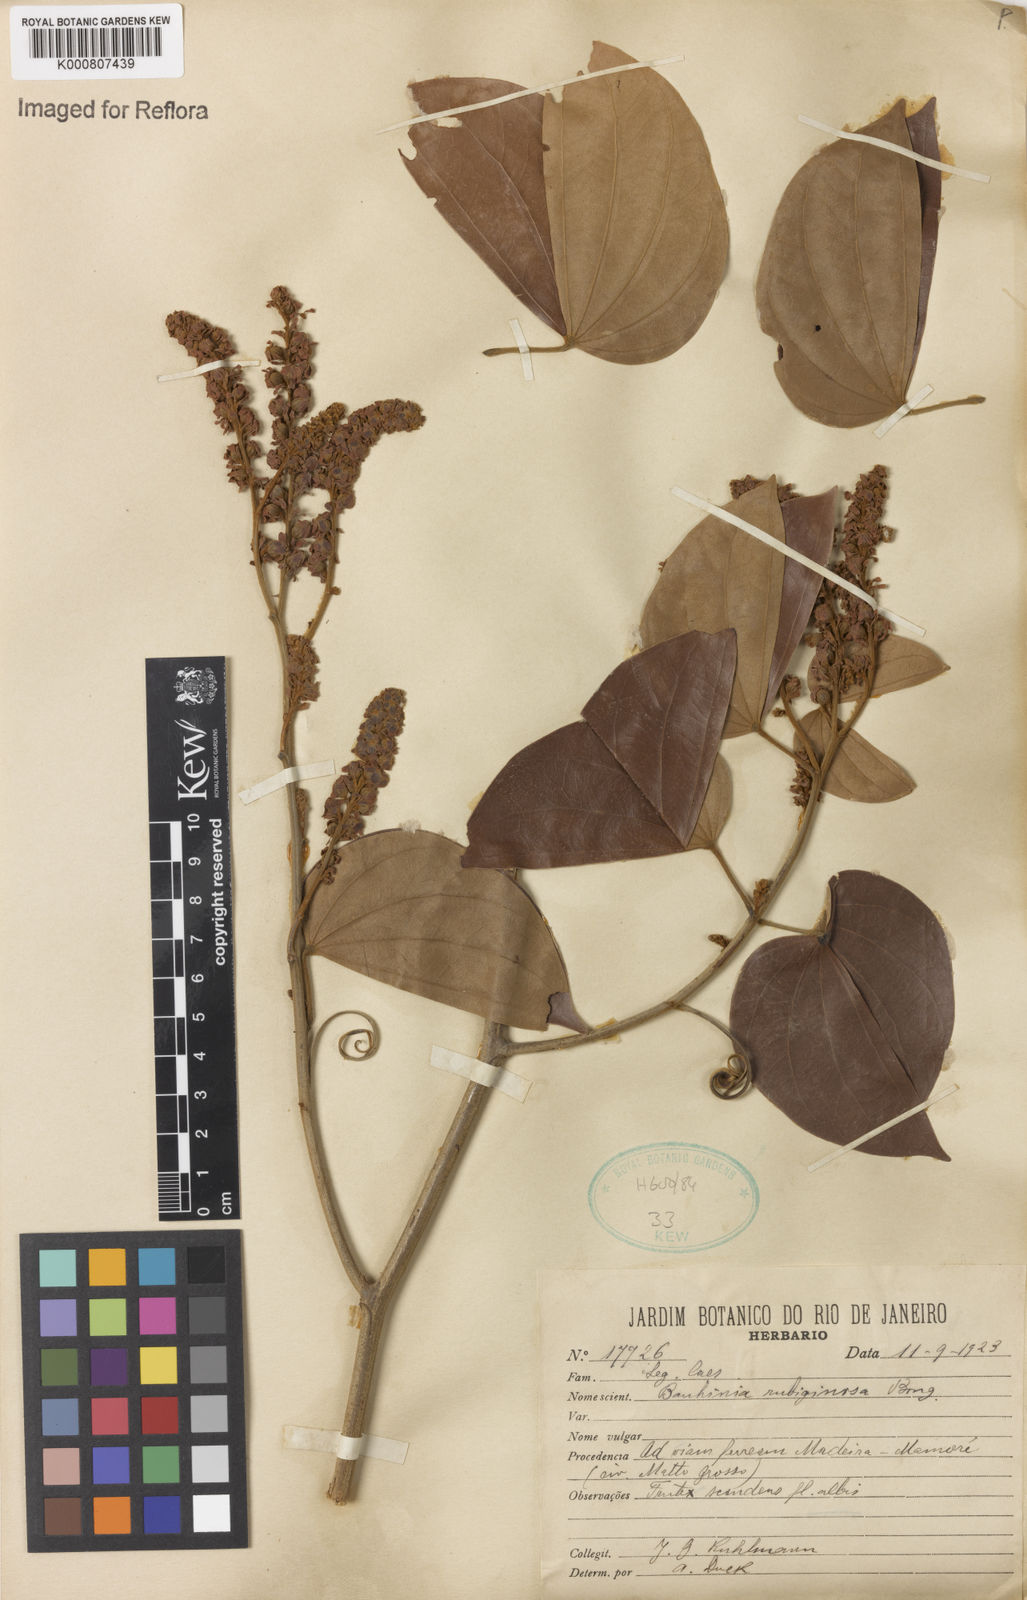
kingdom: Plantae
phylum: Tracheophyta
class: Magnoliopsida
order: Fabales
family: Fabaceae
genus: Schnella
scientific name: Schnella outimouta
